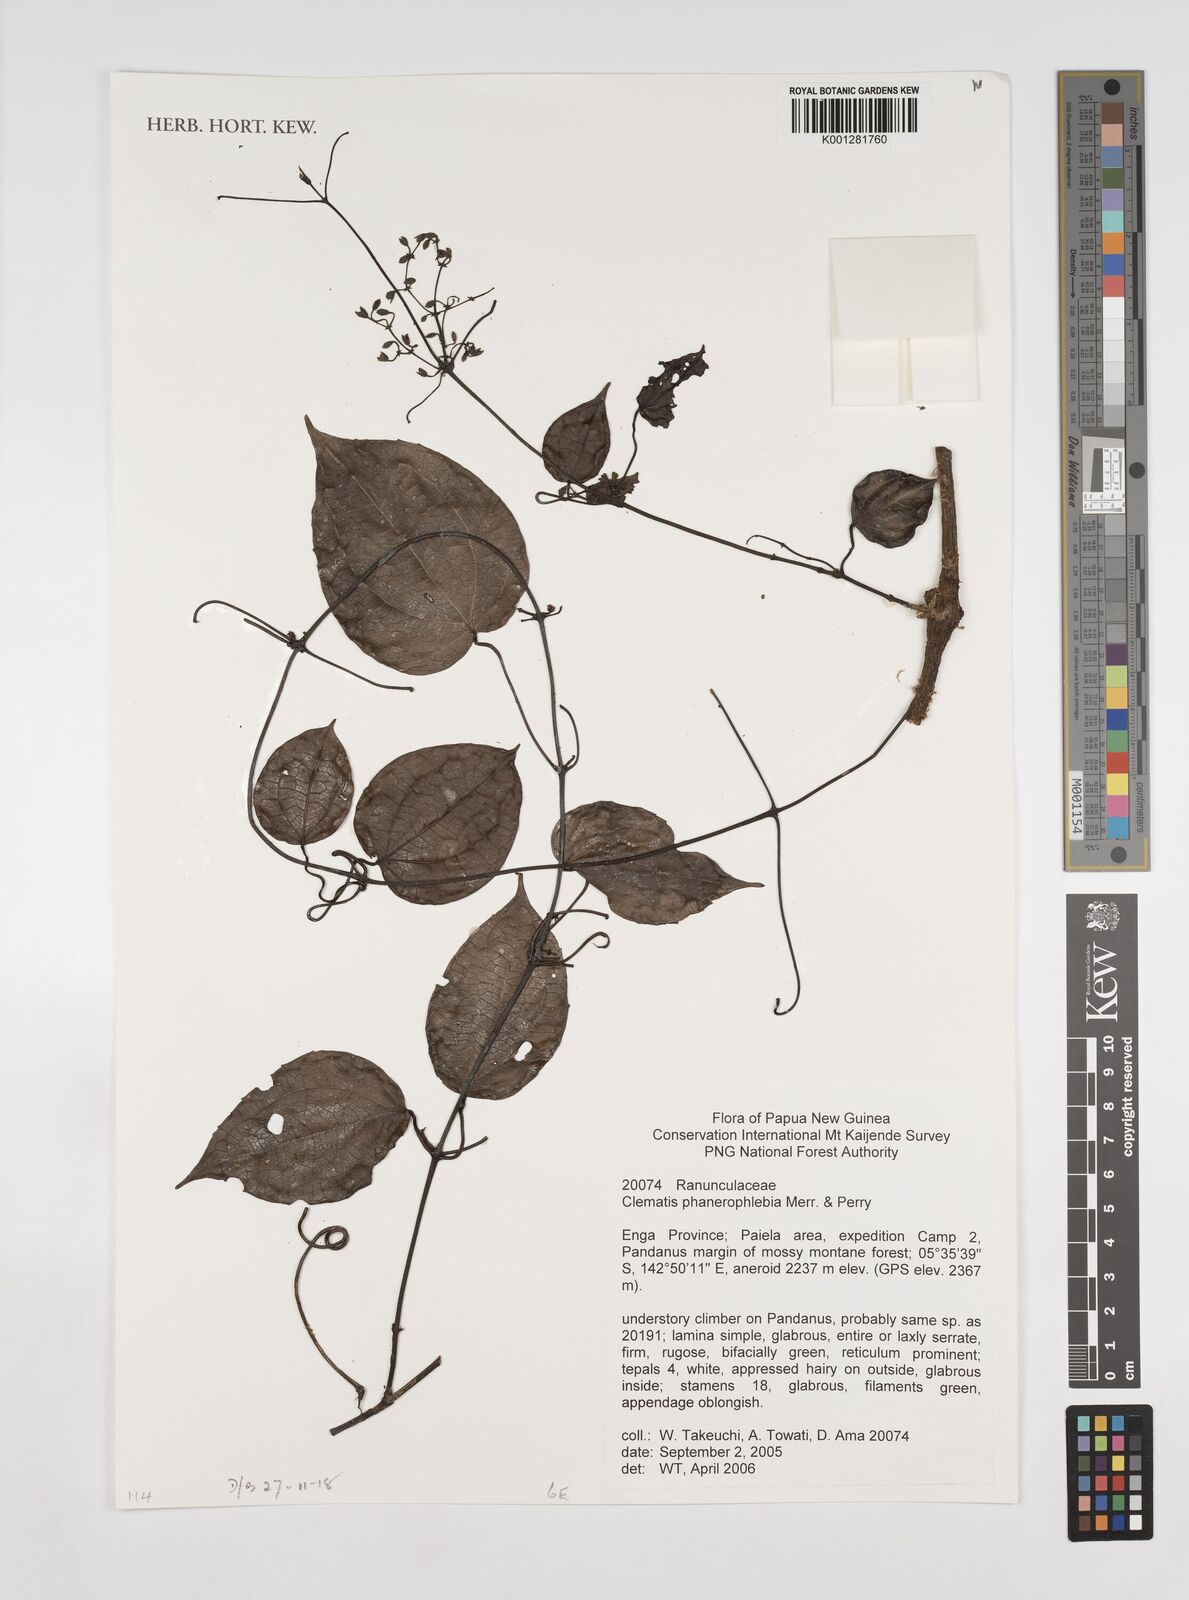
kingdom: Plantae
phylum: Tracheophyta
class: Magnoliopsida
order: Ranunculales
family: Ranunculaceae
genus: Clematis
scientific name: Clematis phanerophlebia
